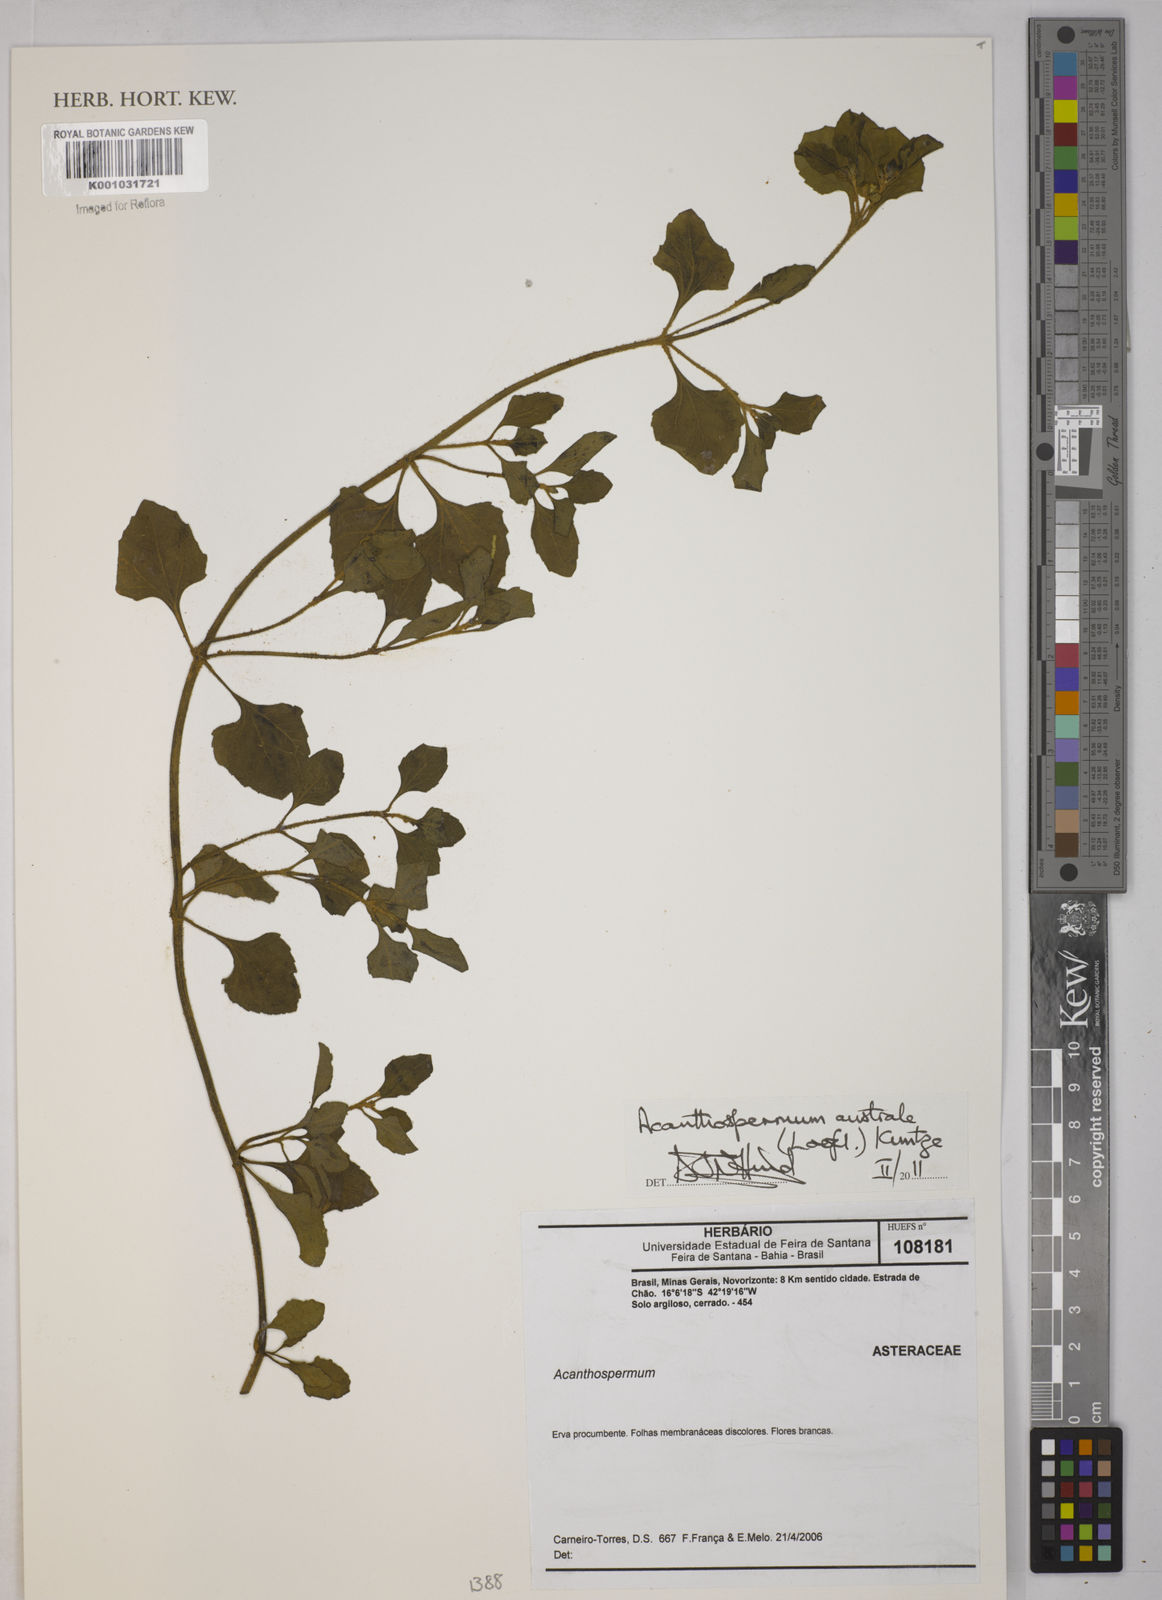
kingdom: Plantae
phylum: Tracheophyta
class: Magnoliopsida
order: Asterales
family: Asteraceae
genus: Acanthospermum
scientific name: Acanthospermum australe
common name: Paraguayan starbur
